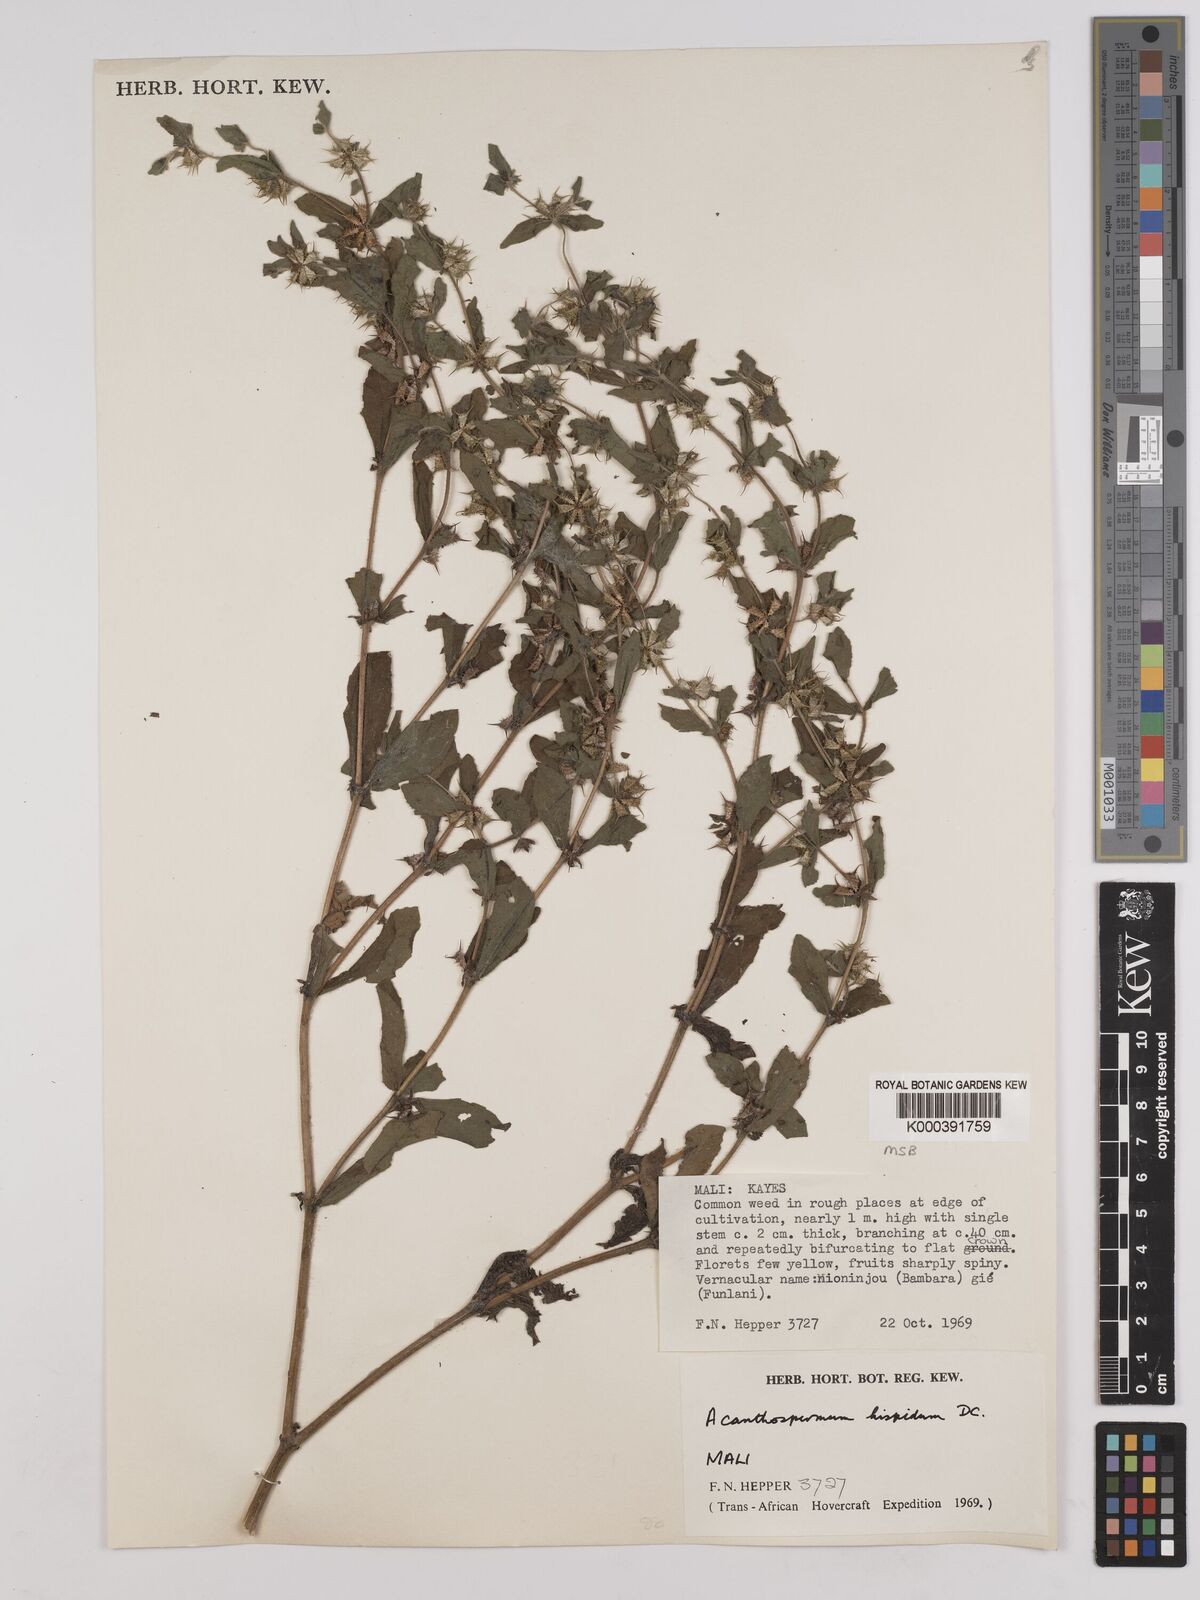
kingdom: Plantae
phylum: Tracheophyta
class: Magnoliopsida
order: Asterales
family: Asteraceae
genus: Acanthospermum
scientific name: Acanthospermum hispidum
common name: Hispid starbur
